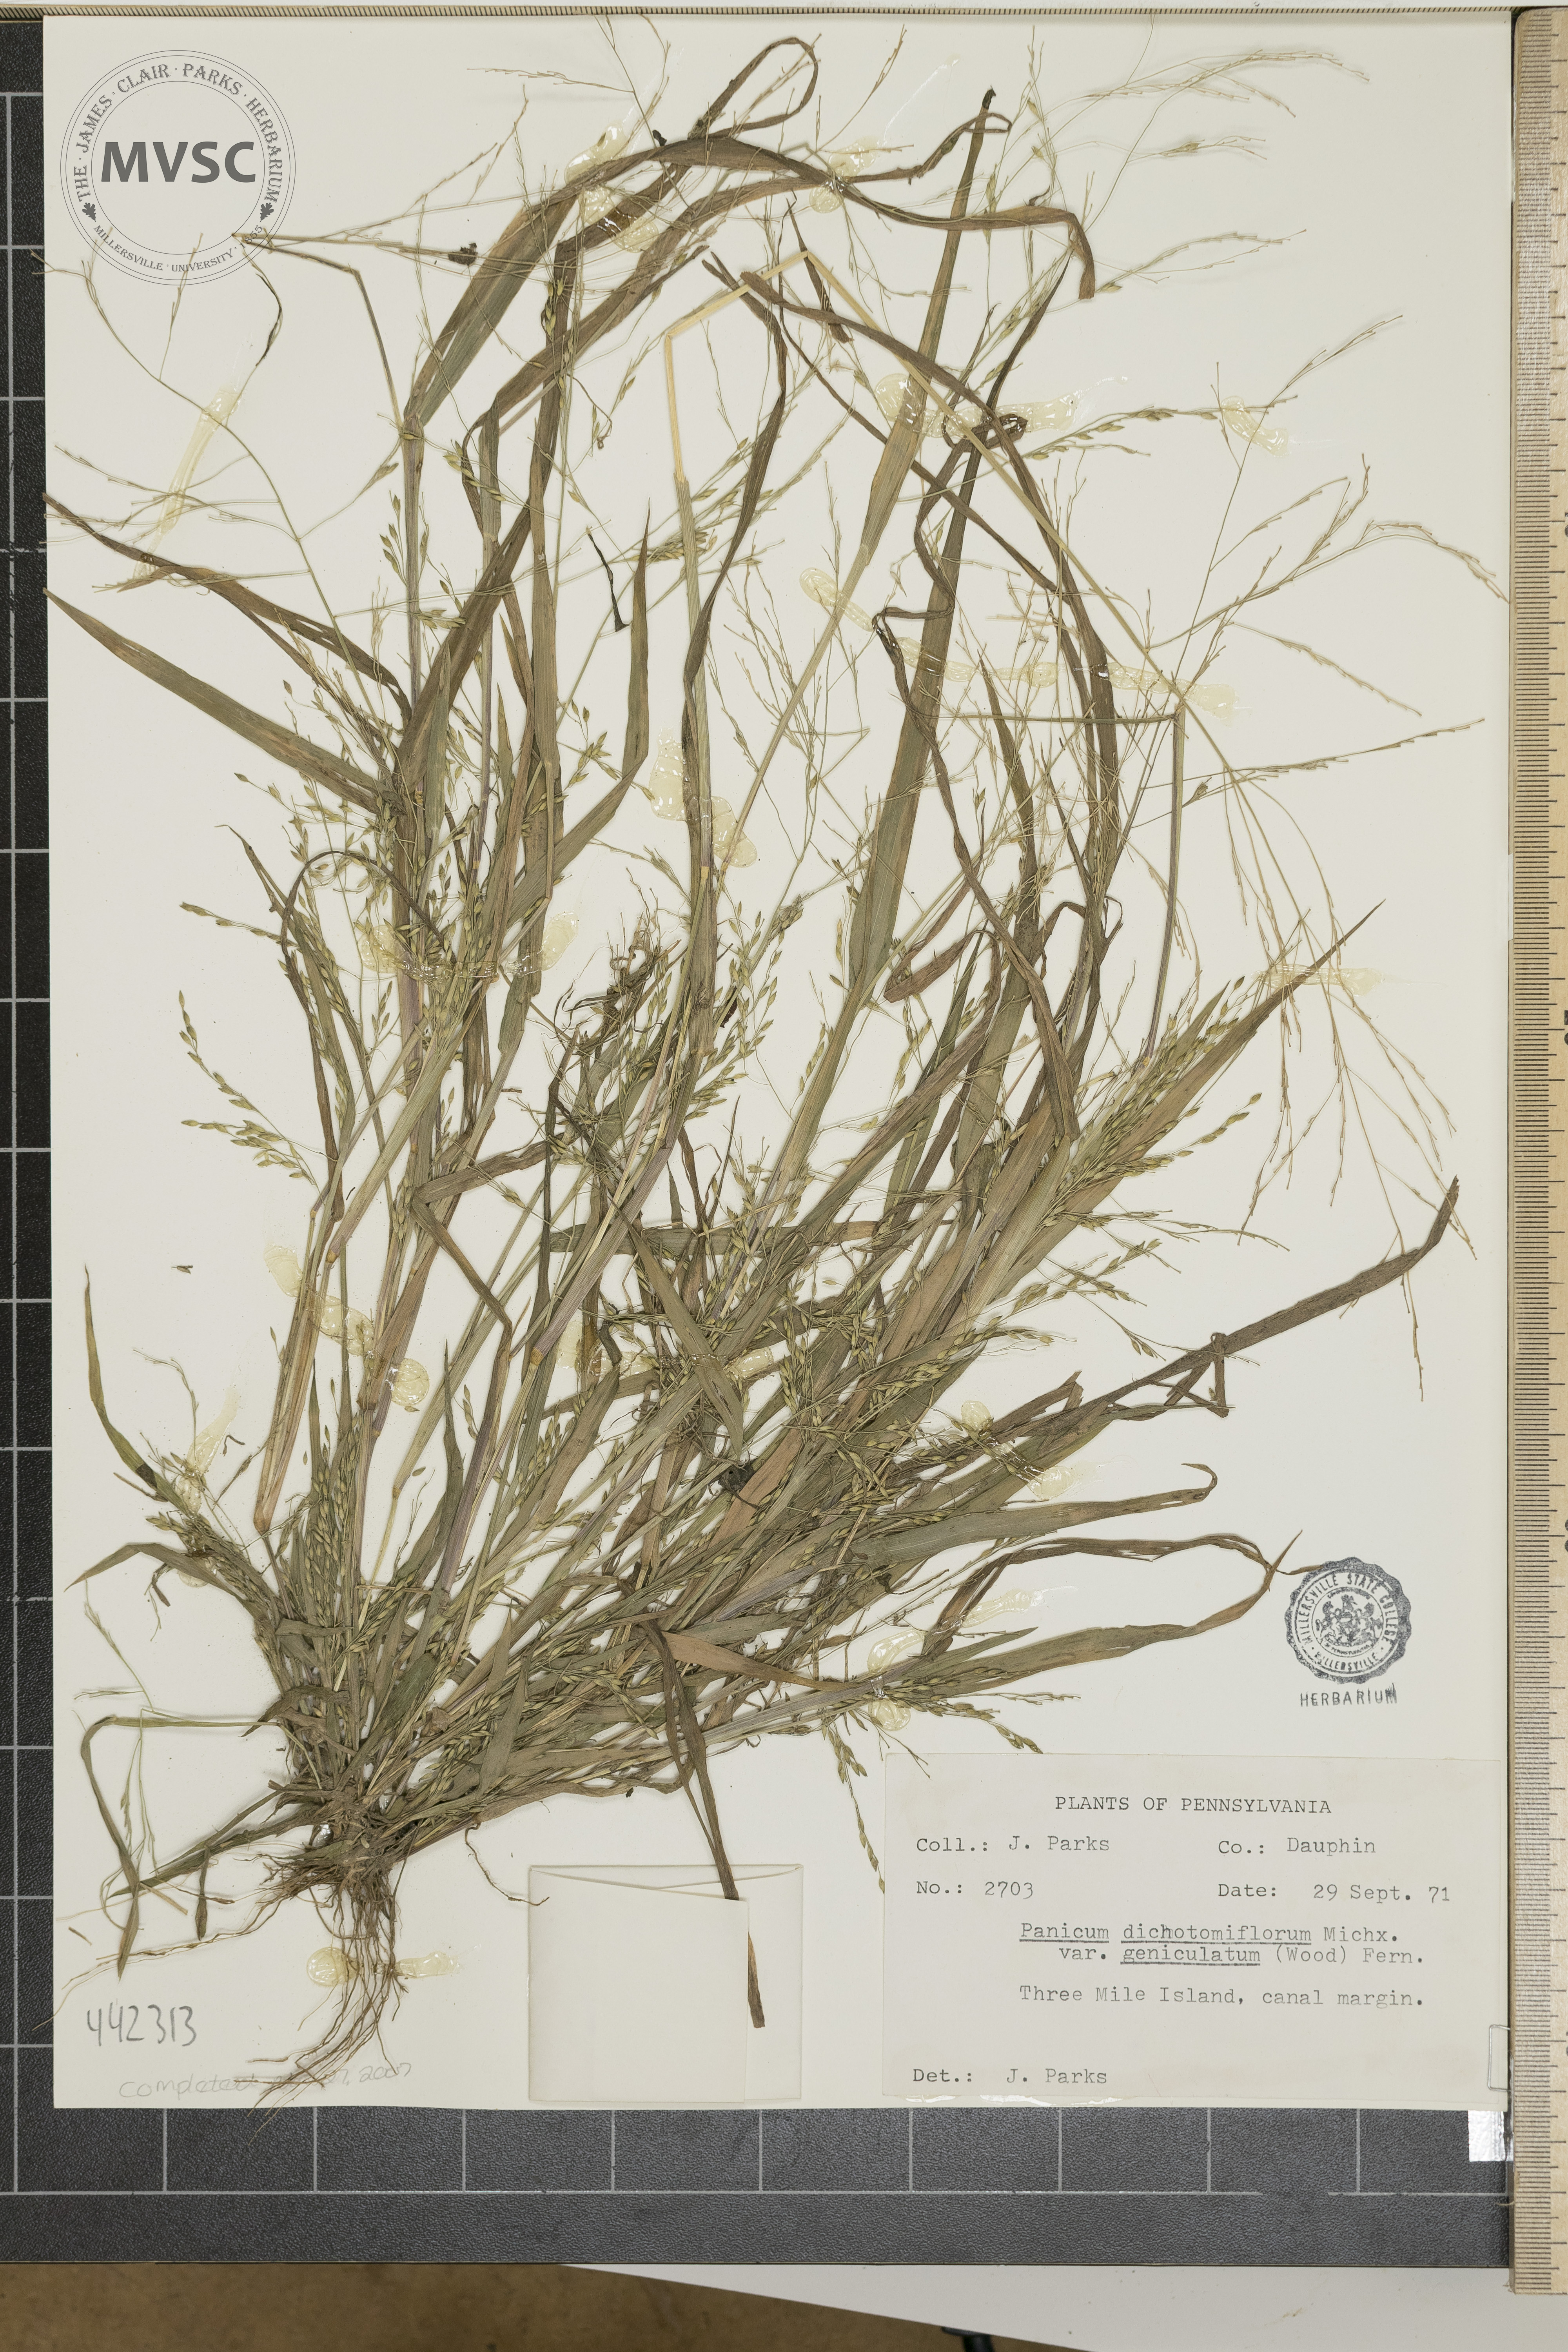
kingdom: Plantae
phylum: Tracheophyta
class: Liliopsida
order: Poales
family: Poaceae
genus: Panicum
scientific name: Panicum dichotomiflorum
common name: Autumn millet
